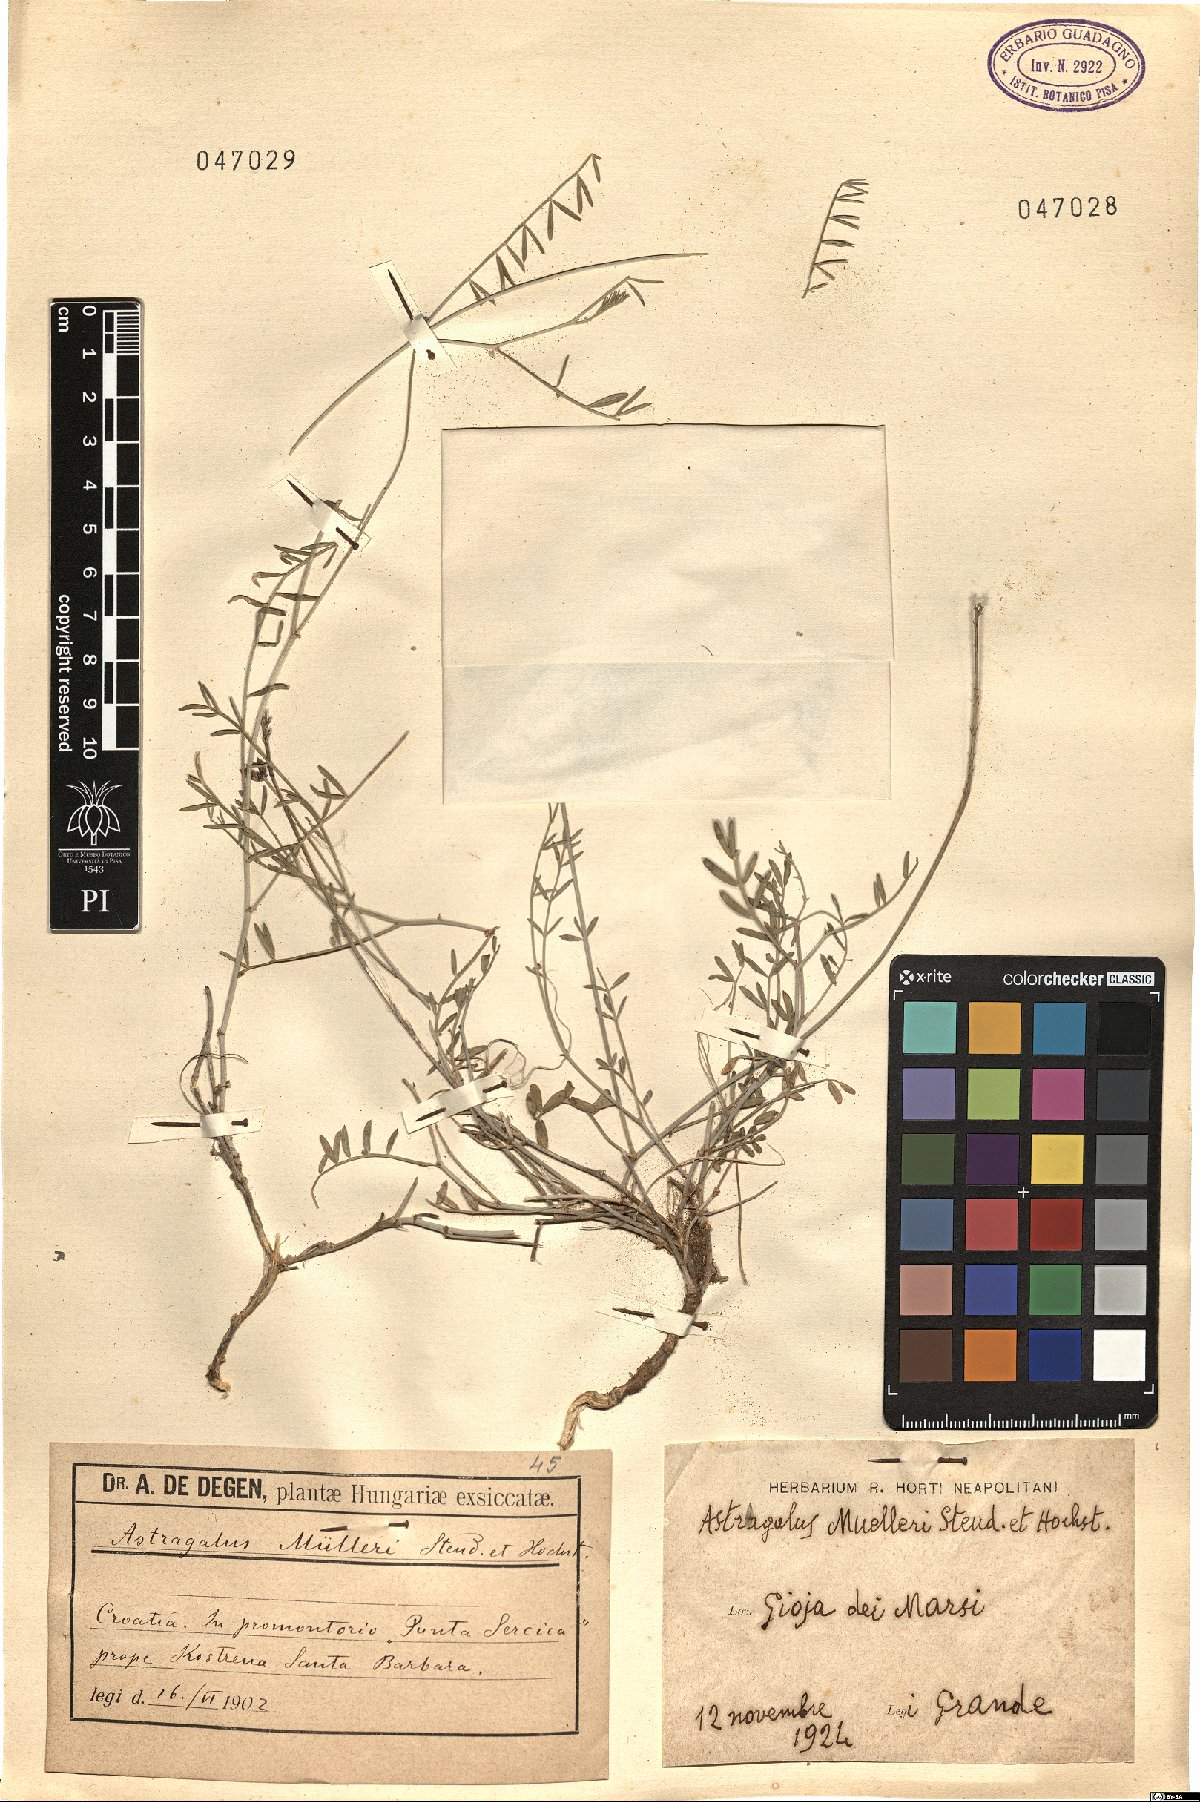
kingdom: Plantae
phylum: Tracheophyta
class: Magnoliopsida
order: Fabales
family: Fabaceae
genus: Astragalus
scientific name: Astragalus muelleri
